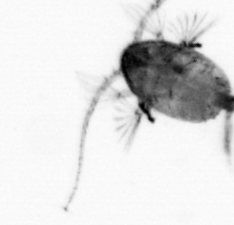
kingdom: Animalia
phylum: Arthropoda
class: Copepoda
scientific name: Copepoda
